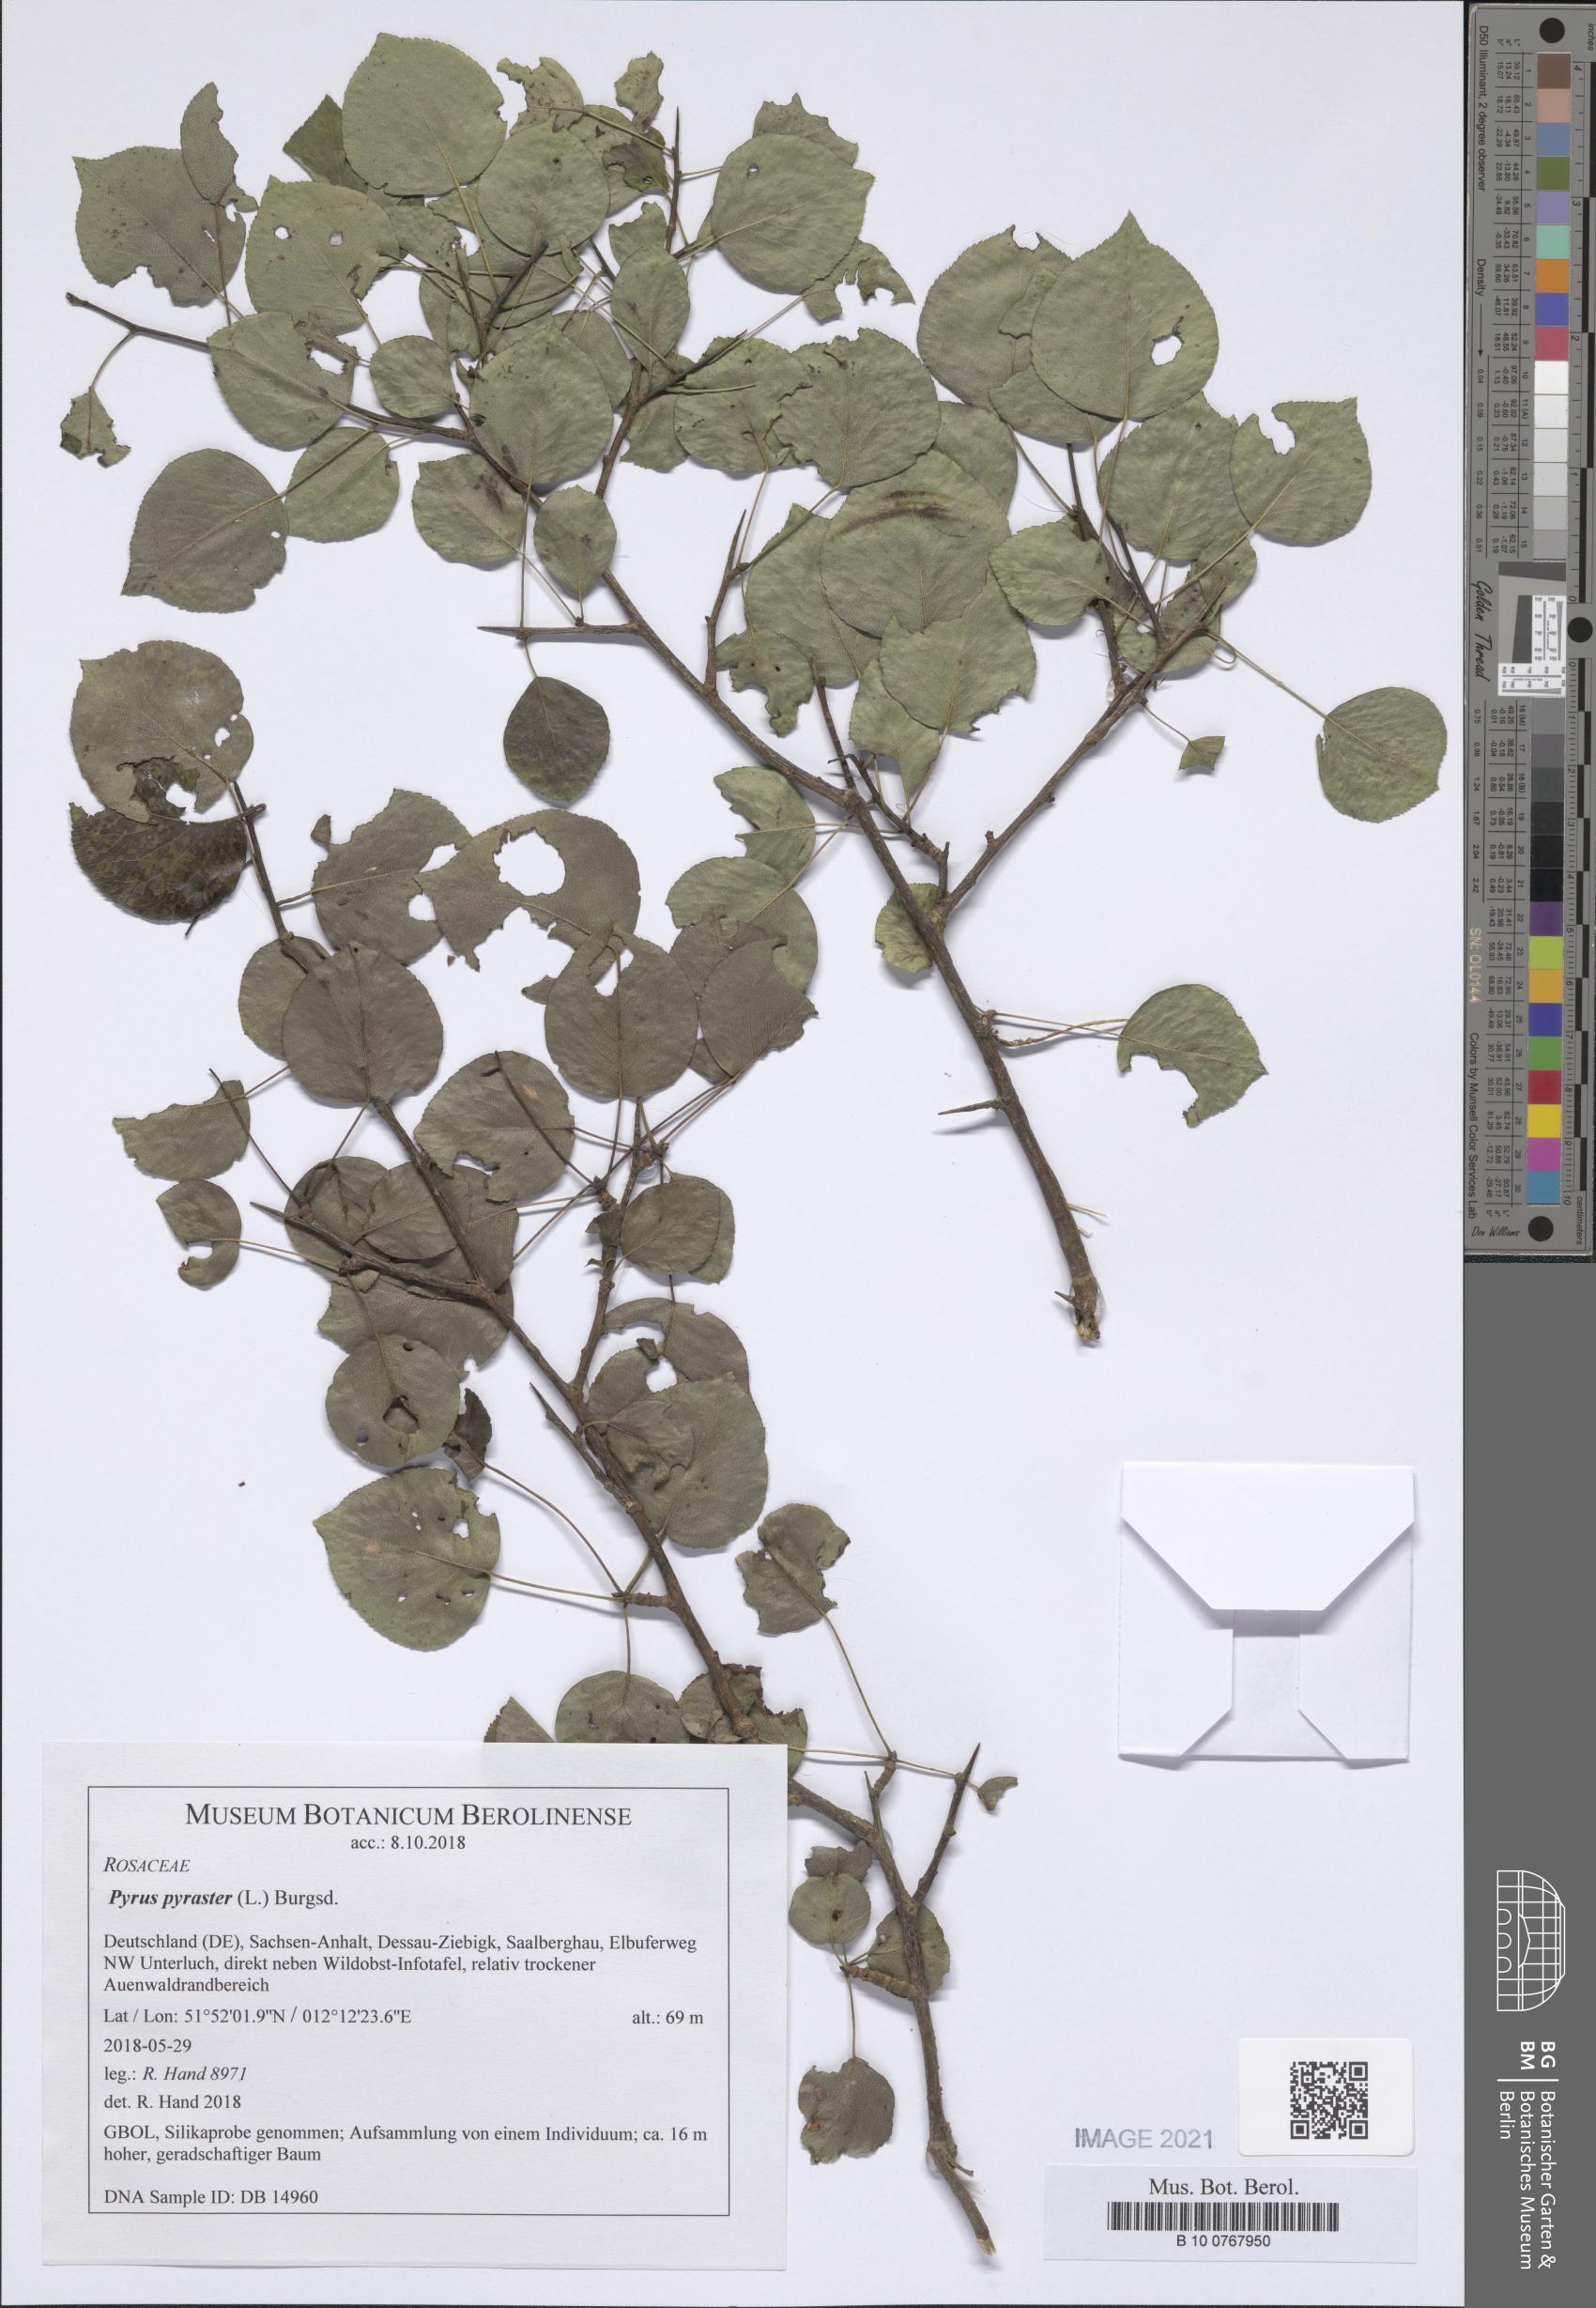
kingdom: Plantae
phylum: Tracheophyta
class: Magnoliopsida
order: Rosales
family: Rosaceae
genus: Pyrus
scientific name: Pyrus pyraster
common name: Wild pear
